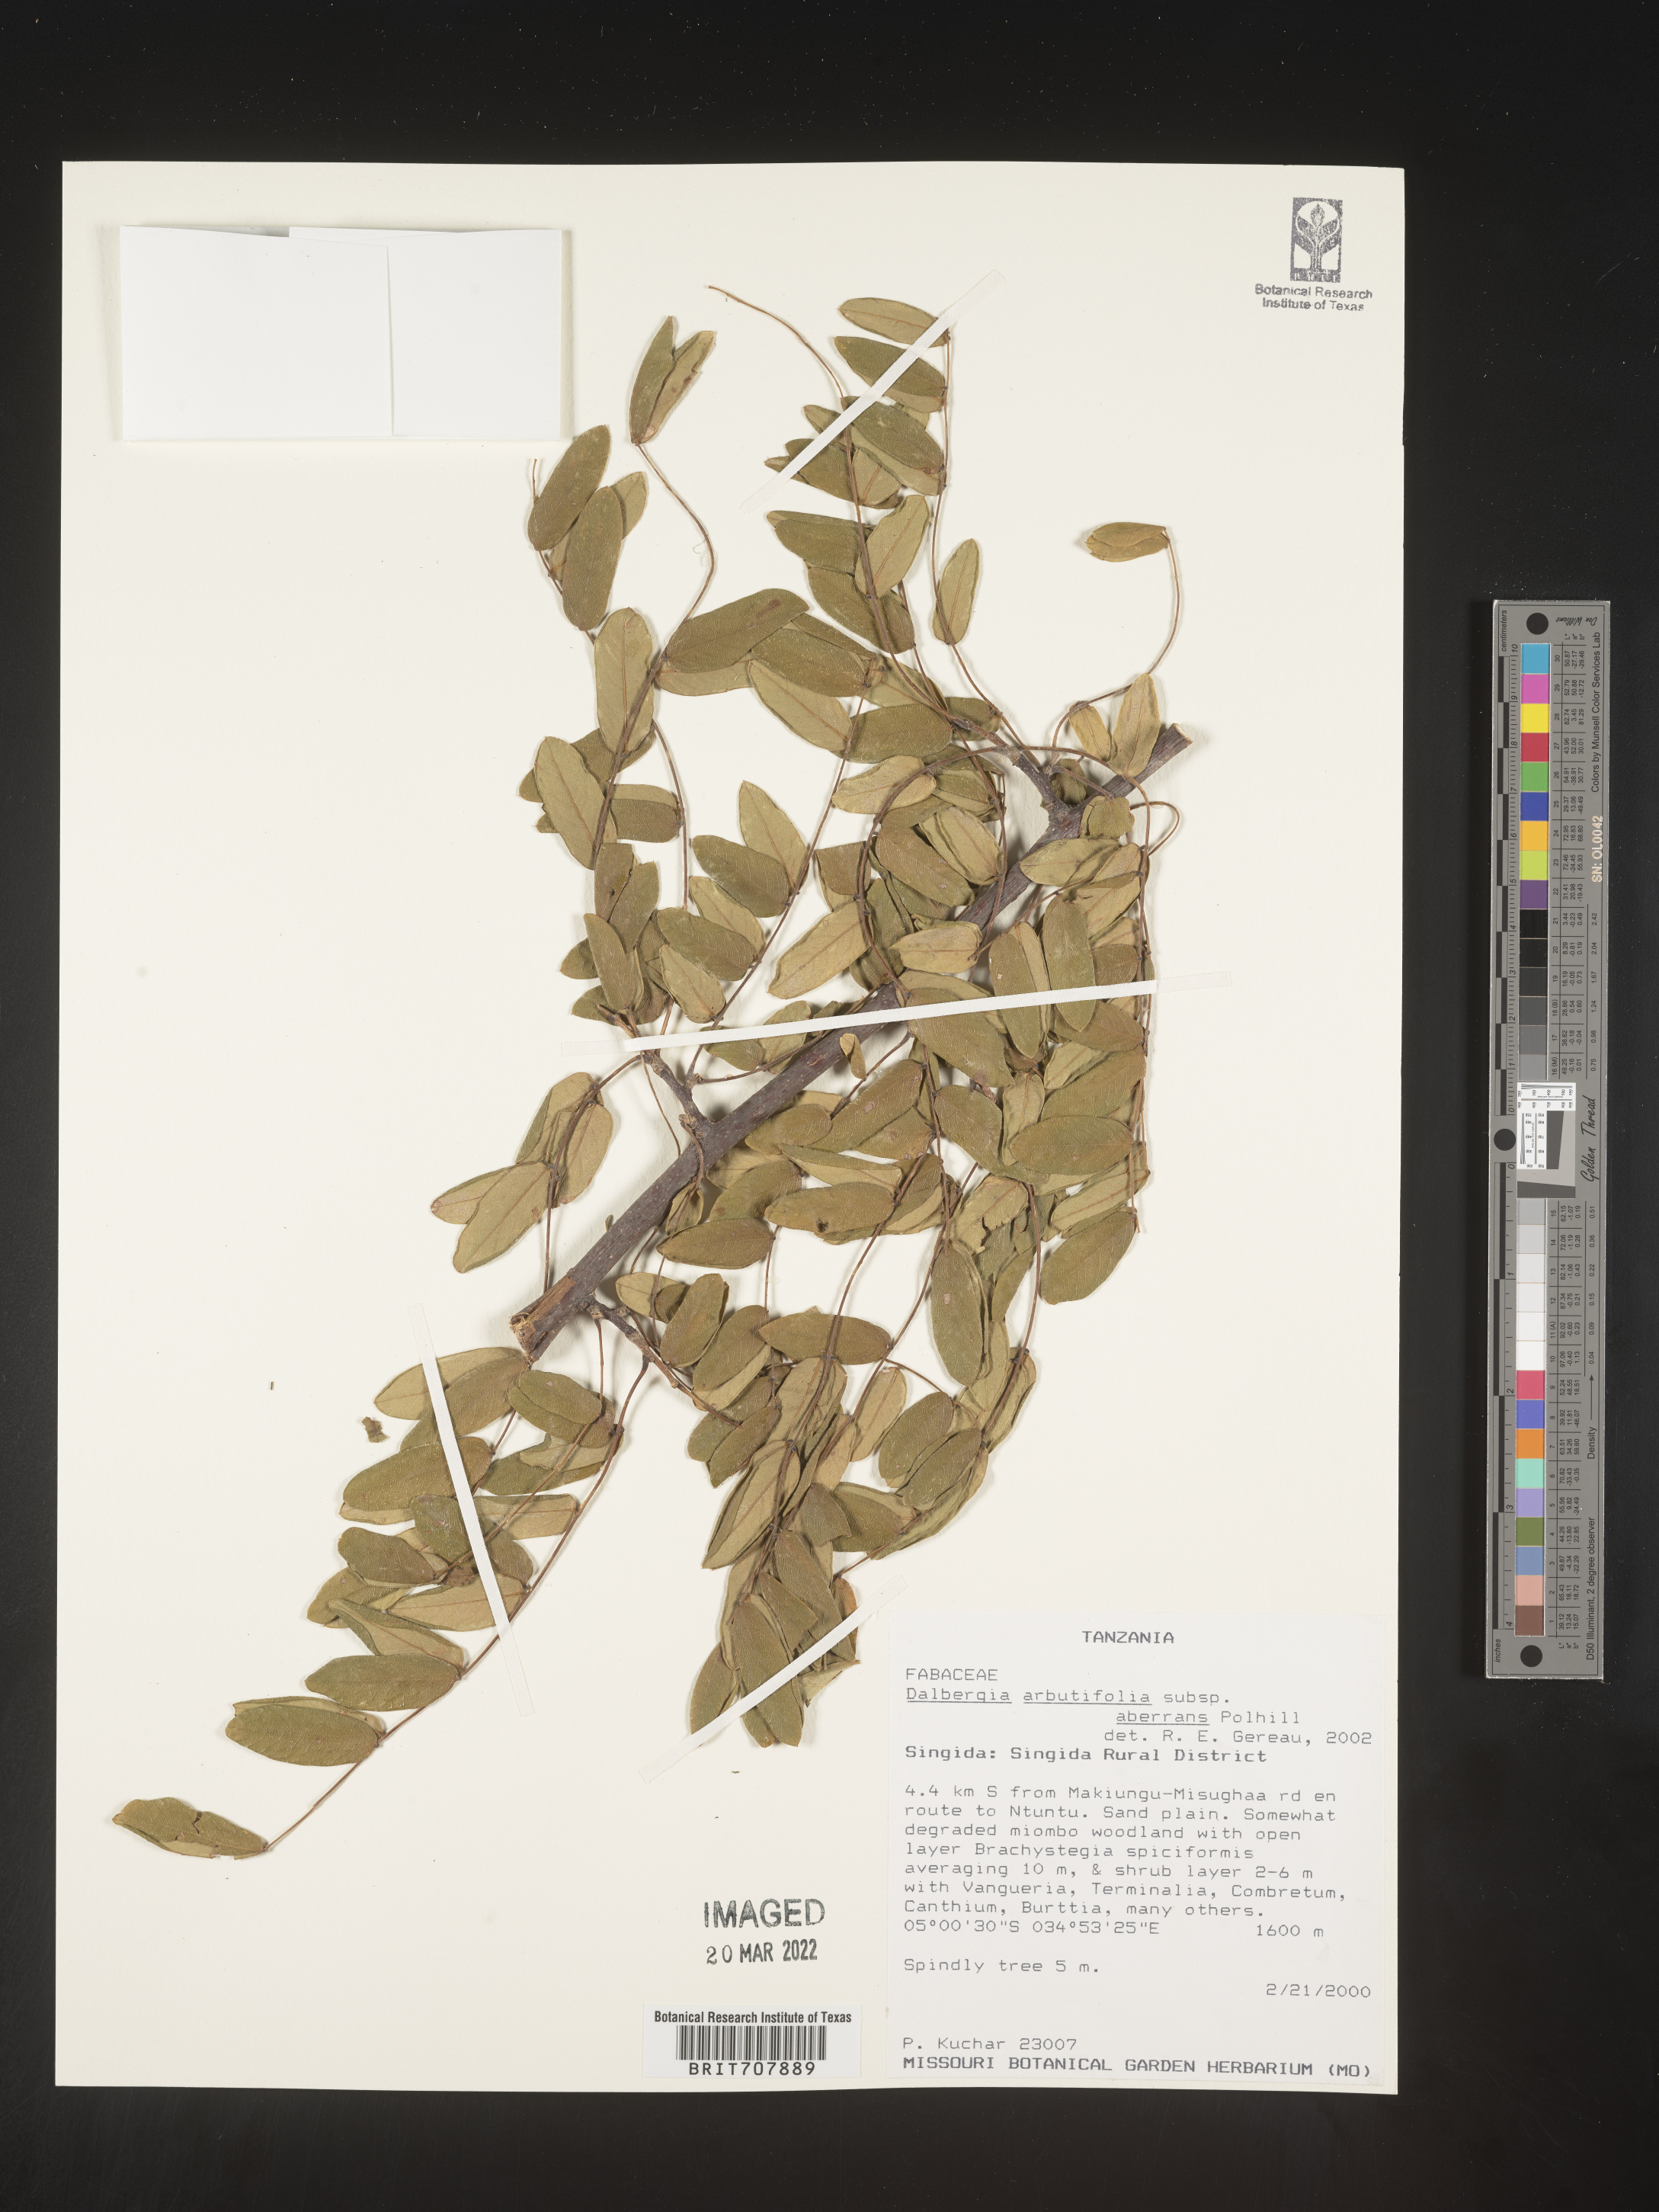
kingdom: Plantae
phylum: Tracheophyta
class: Magnoliopsida
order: Fabales
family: Fabaceae
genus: Dalbergia
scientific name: Dalbergia
